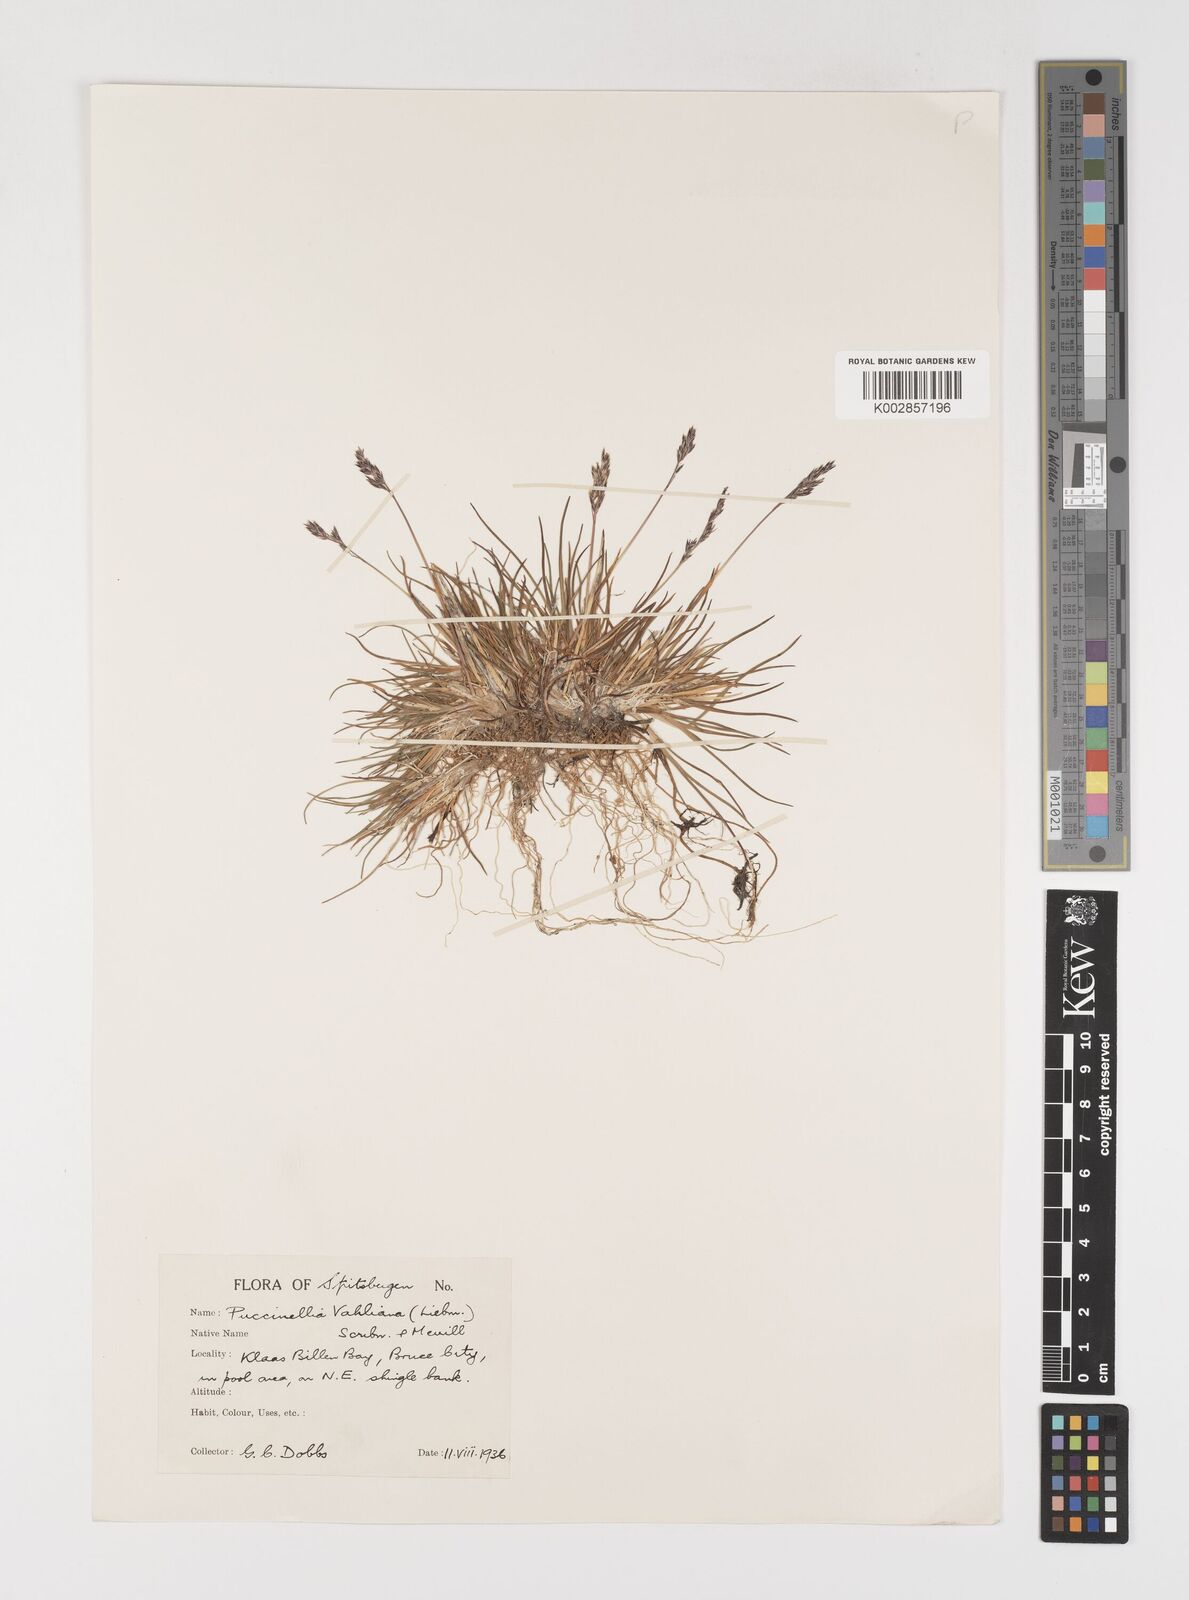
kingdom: Plantae
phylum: Tracheophyta
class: Liliopsida
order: Poales
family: Poaceae
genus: Puccinellia
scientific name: Puccinellia vahliana
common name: Vahl's alkaligrass
